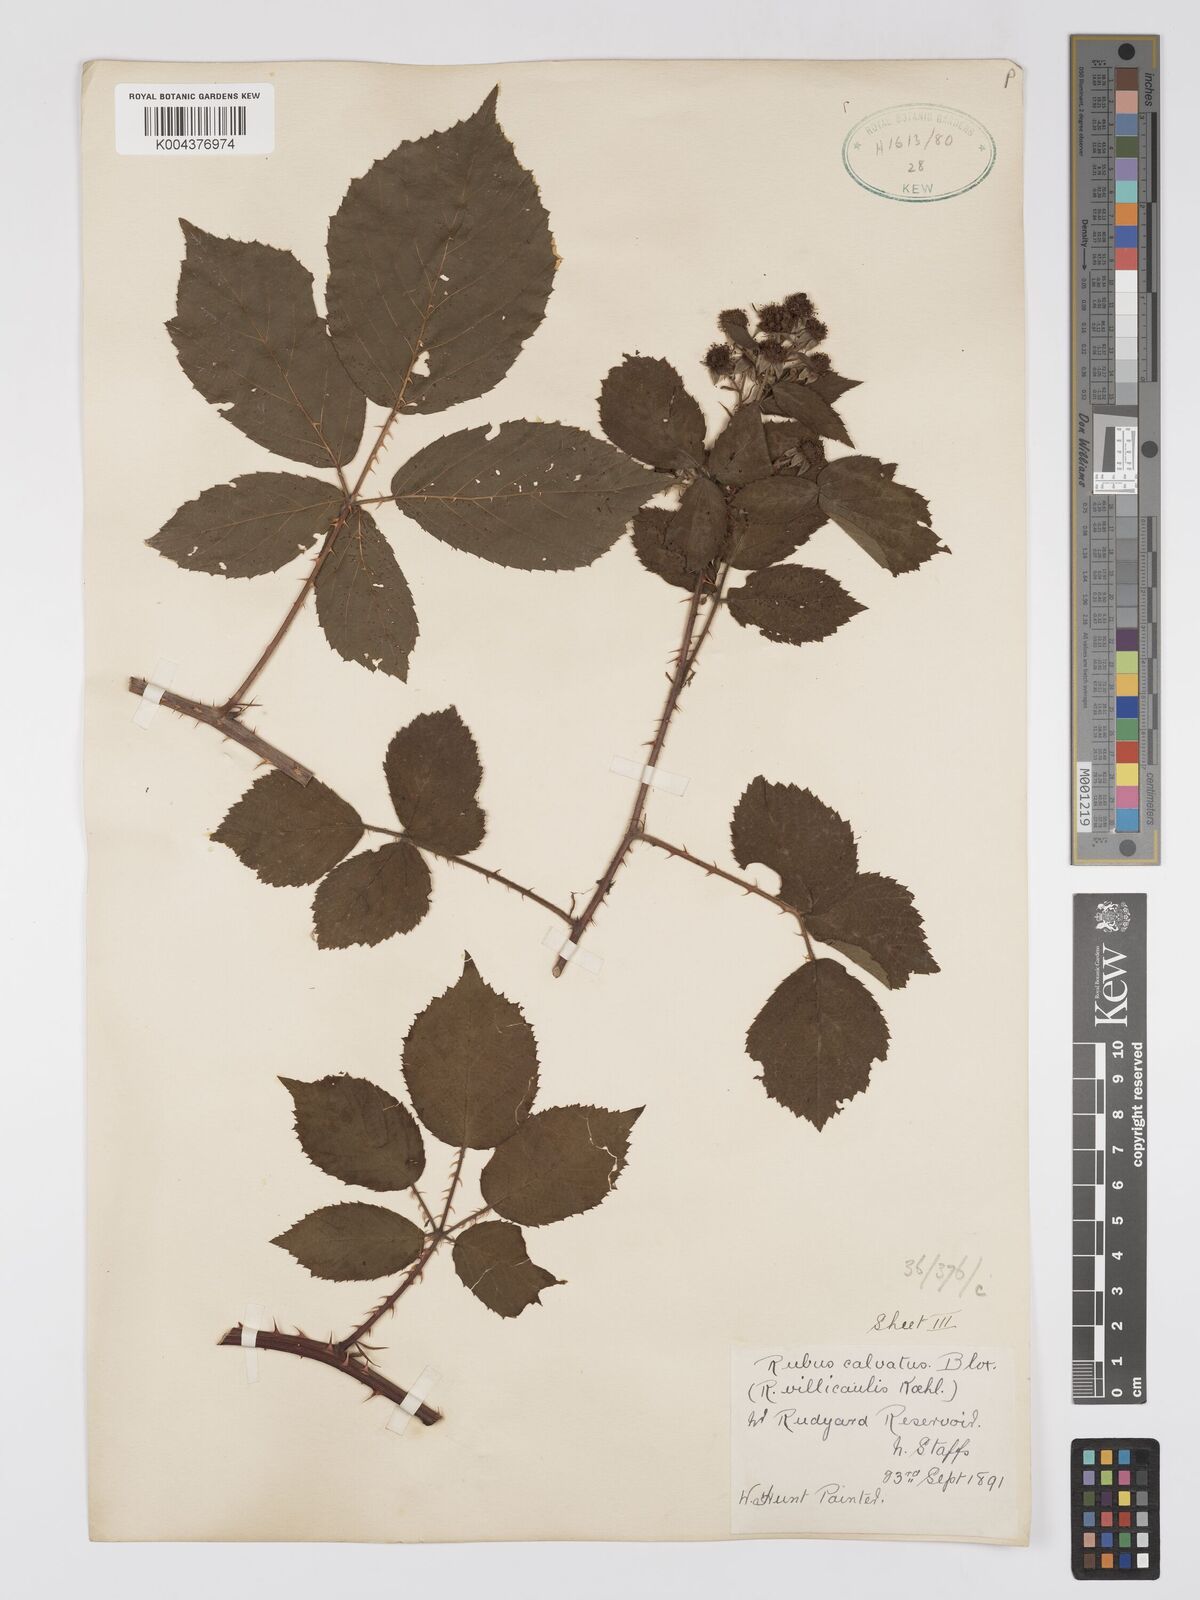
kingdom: Plantae
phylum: Tracheophyta
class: Magnoliopsida
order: Rosales
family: Rosaceae
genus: Rubus
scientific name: Rubus calvatus
